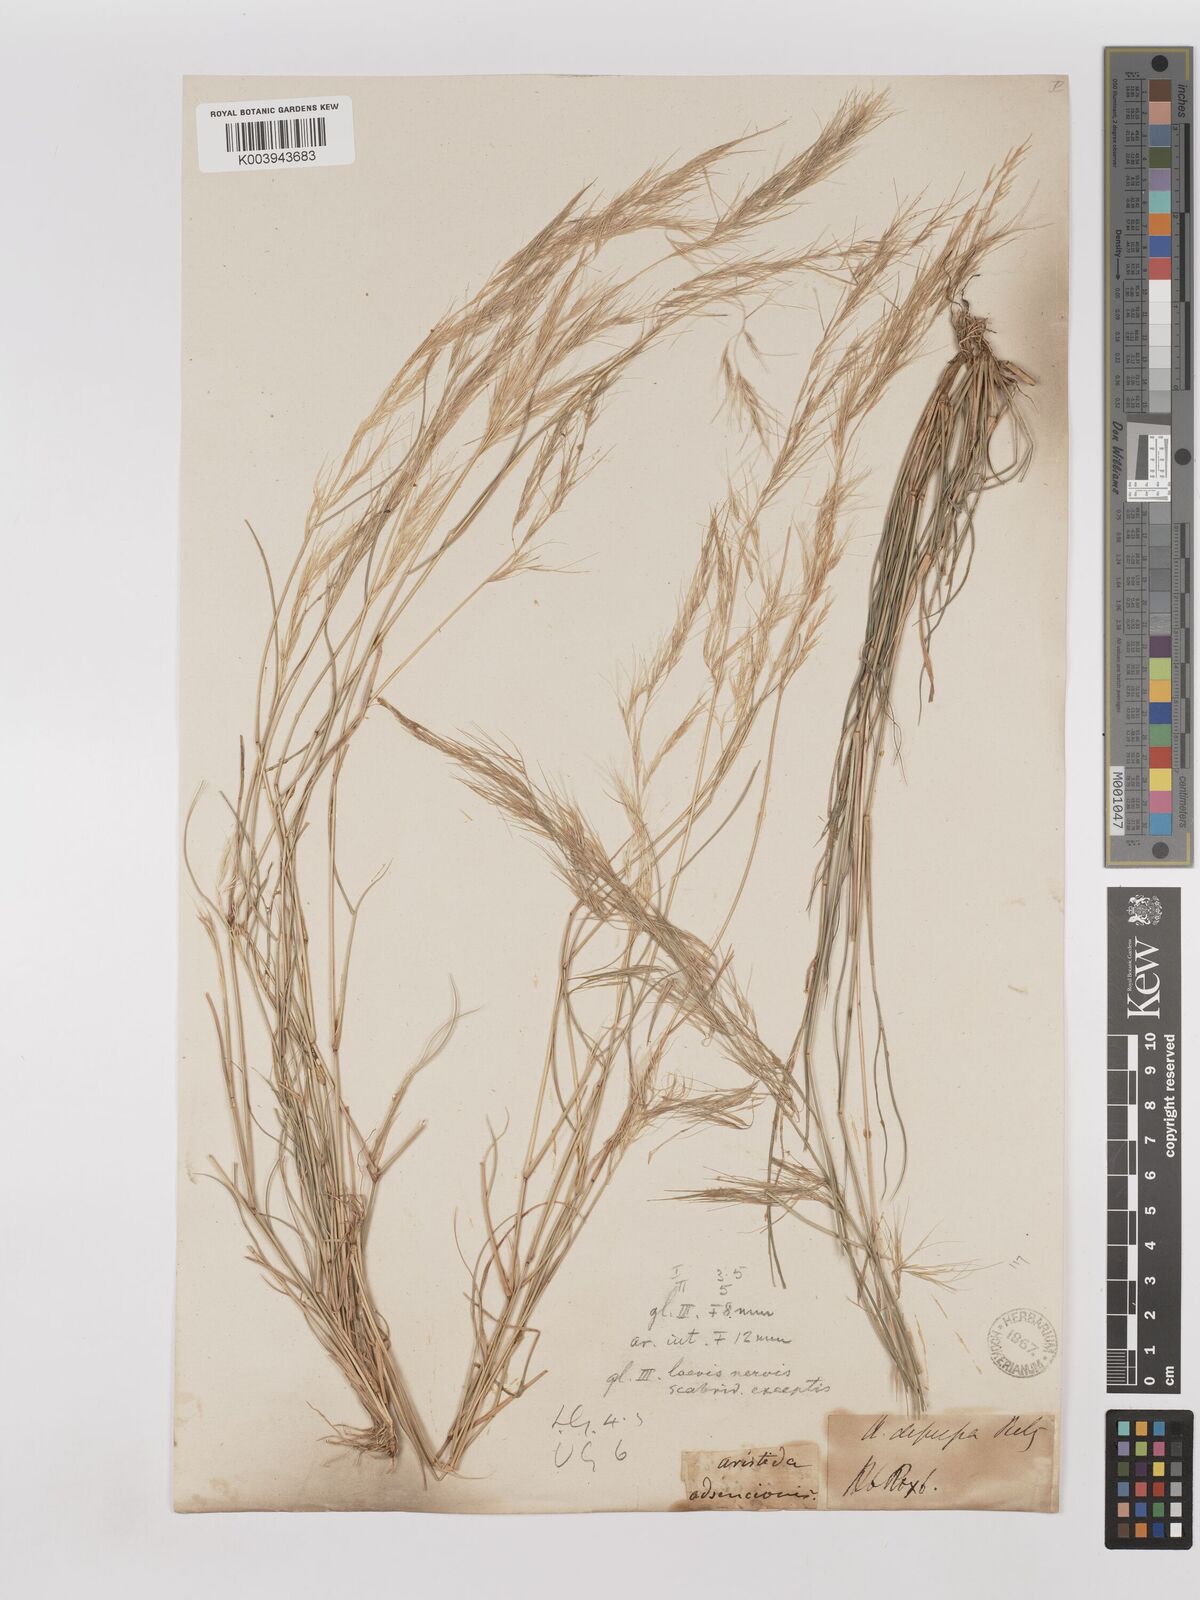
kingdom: Plantae
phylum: Tracheophyta
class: Liliopsida
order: Poales
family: Poaceae
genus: Aristida
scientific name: Aristida adscensionis
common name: Sixweeks threeawn
